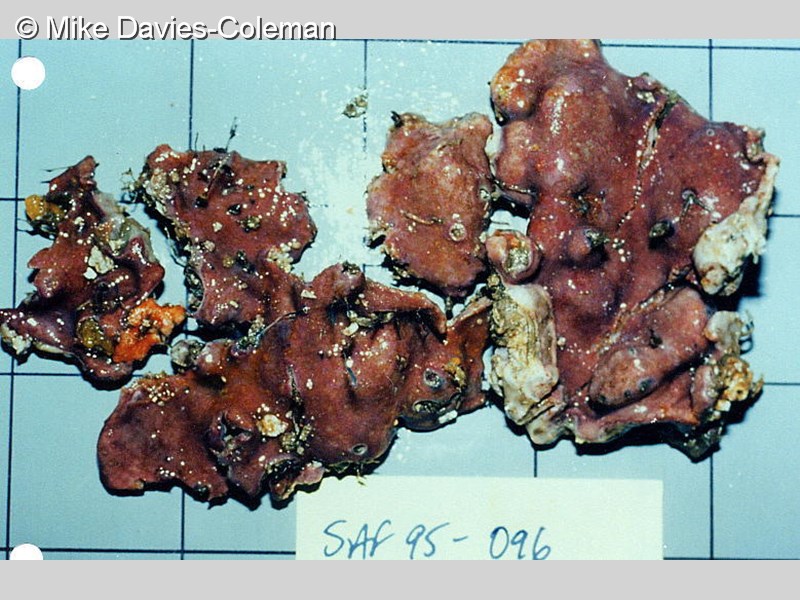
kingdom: Animalia
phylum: Chordata
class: Ascidiacea
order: Aplousobranchia
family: Didemnidae
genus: Didemnum
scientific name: Didemnum
